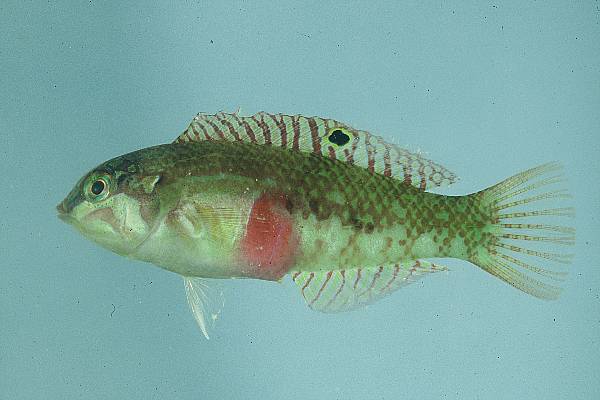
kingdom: Animalia
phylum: Chordata
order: Perciformes
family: Labridae
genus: Halichoeres
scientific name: Halichoeres nebulosus
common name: Clouded wrasse
